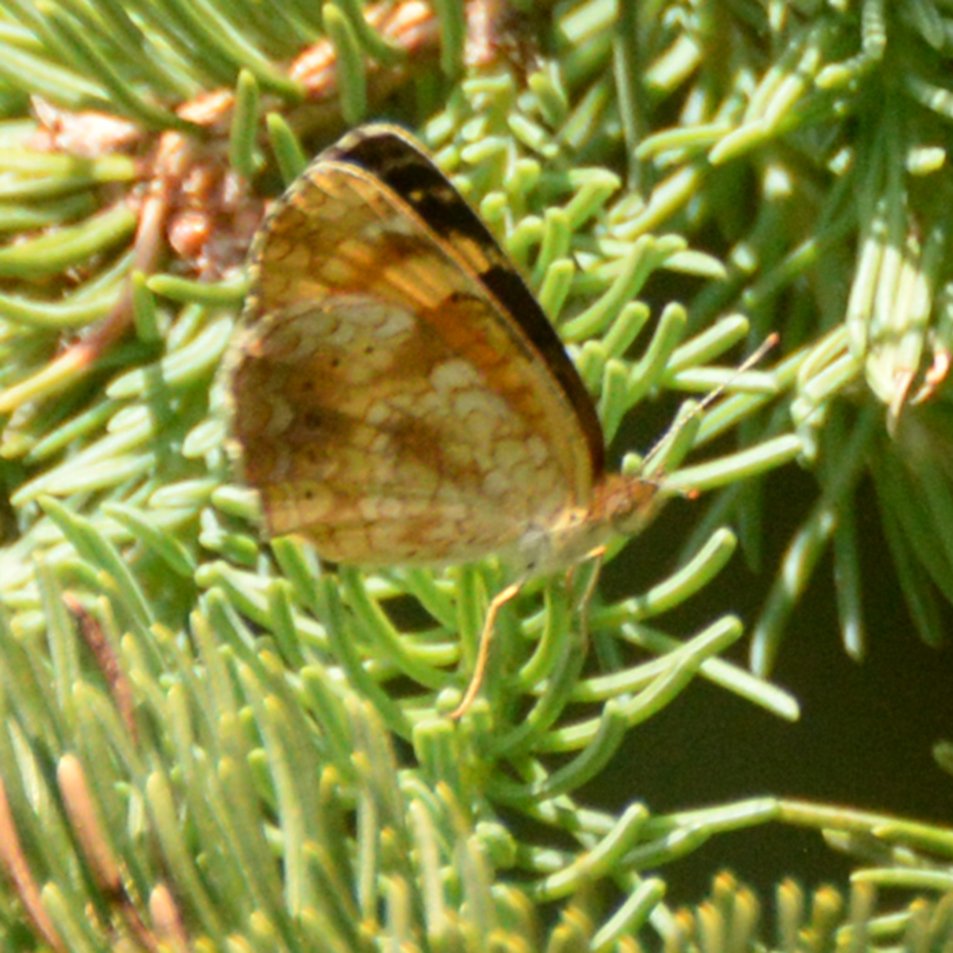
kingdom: Animalia
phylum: Arthropoda
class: Insecta
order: Lepidoptera
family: Nymphalidae
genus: Phyciodes
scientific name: Phyciodes tharos
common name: Northern Crescent
